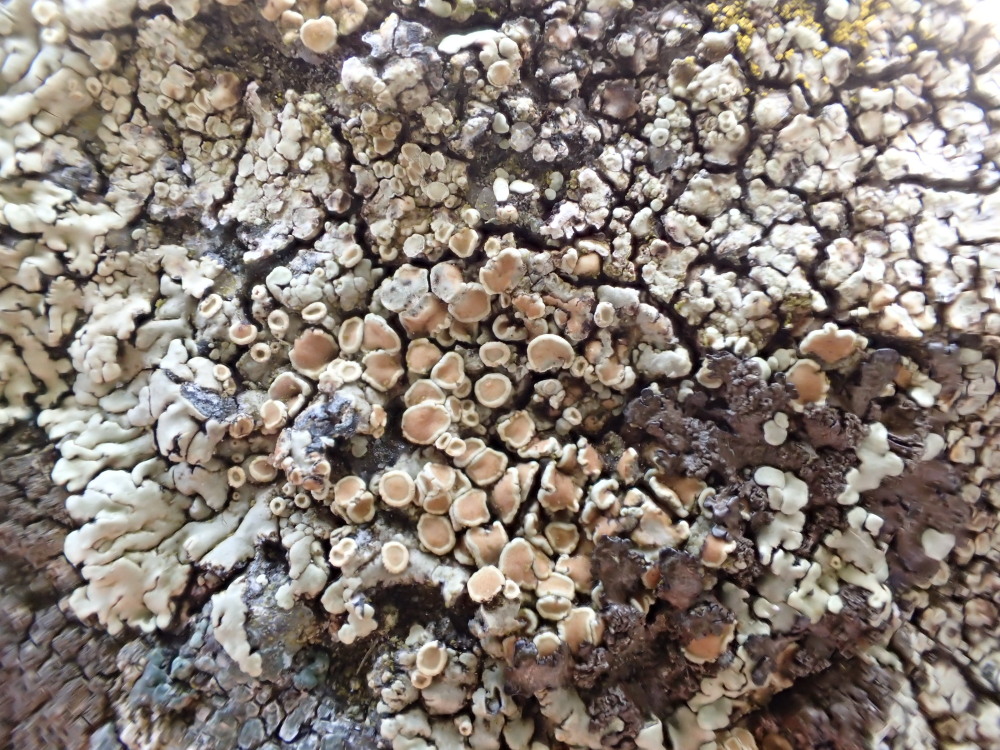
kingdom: Fungi
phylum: Ascomycota
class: Lecanoromycetes
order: Lecanorales
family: Lecanoraceae
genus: Protoparmeliopsis
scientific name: Protoparmeliopsis muralis
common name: randfliget kantskivelav
